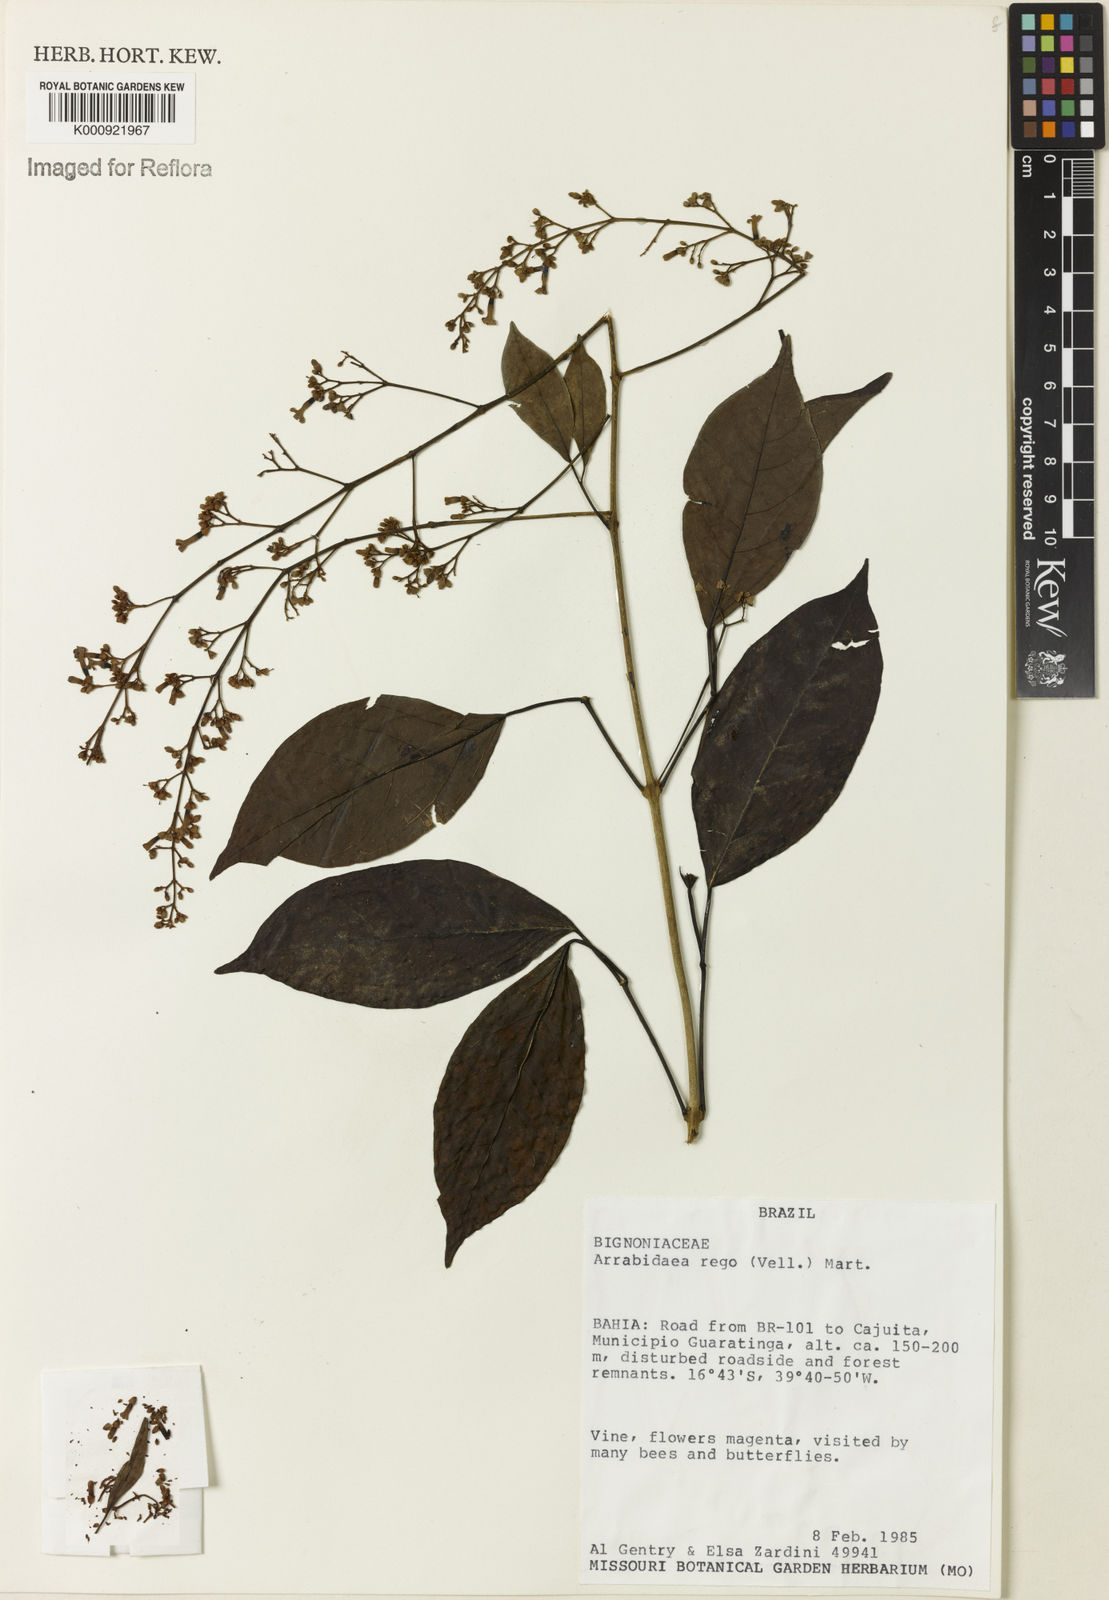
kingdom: Plantae
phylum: Tracheophyta
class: Magnoliopsida
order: Lamiales
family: Bignoniaceae
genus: Fridericia
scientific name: Fridericia rego
